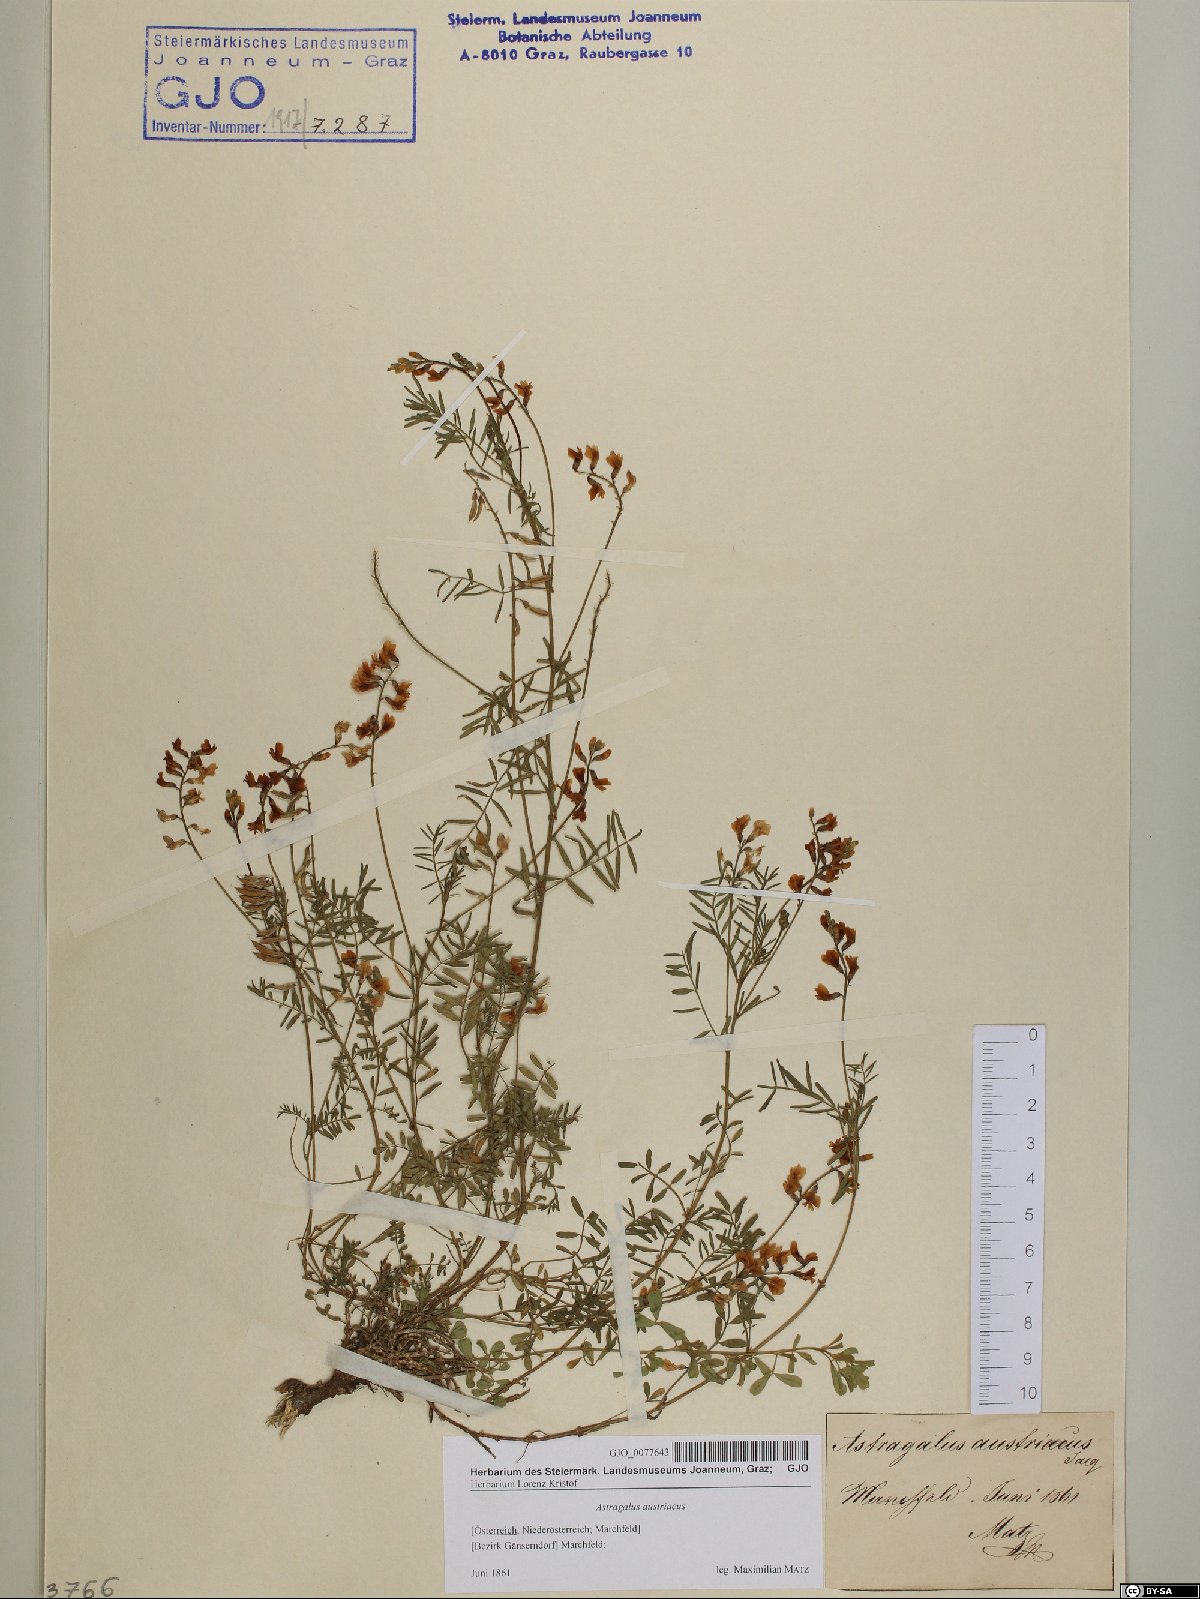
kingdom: Plantae
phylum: Tracheophyta
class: Magnoliopsida
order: Fabales
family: Fabaceae
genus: Astragalus
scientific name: Astragalus austriacus
